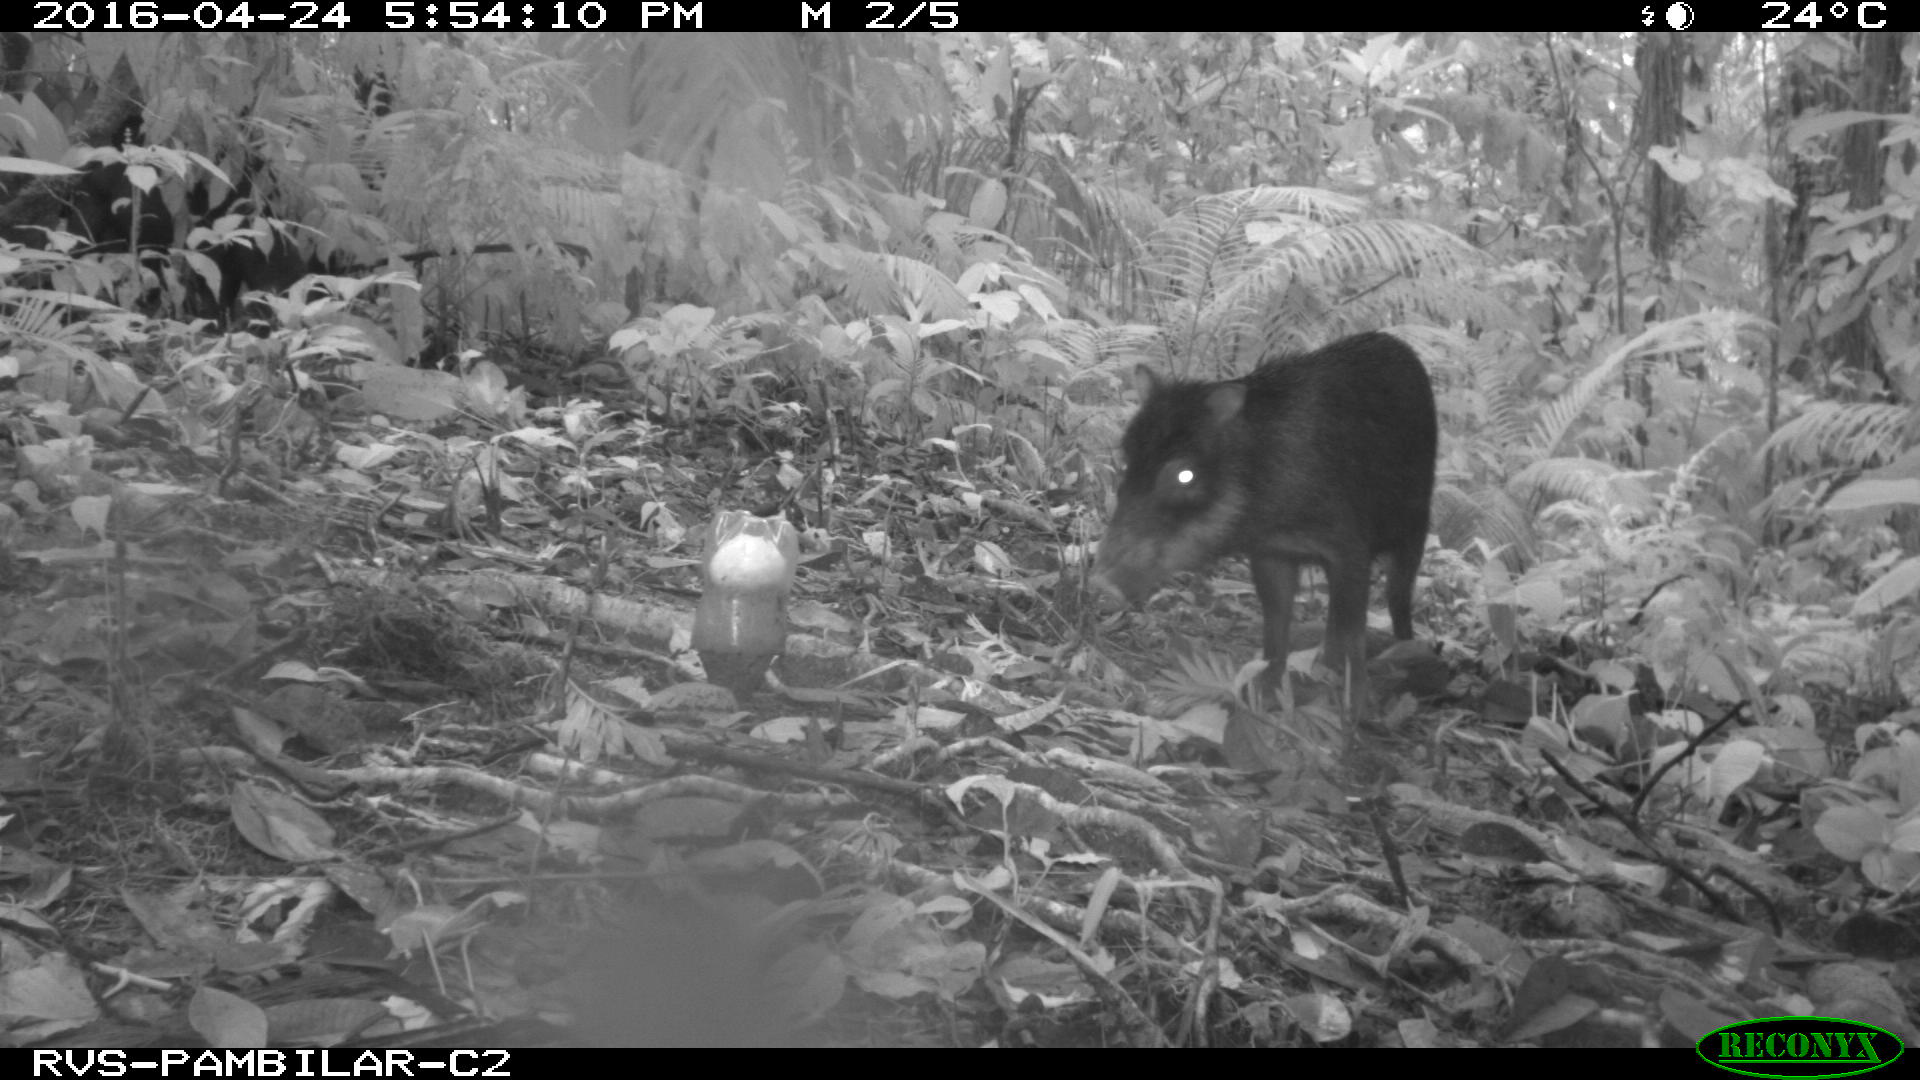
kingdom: Animalia
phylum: Chordata
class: Mammalia
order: Artiodactyla
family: Tayassuidae
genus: Tayassu
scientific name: Tayassu pecari
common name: White-lipped peccary
